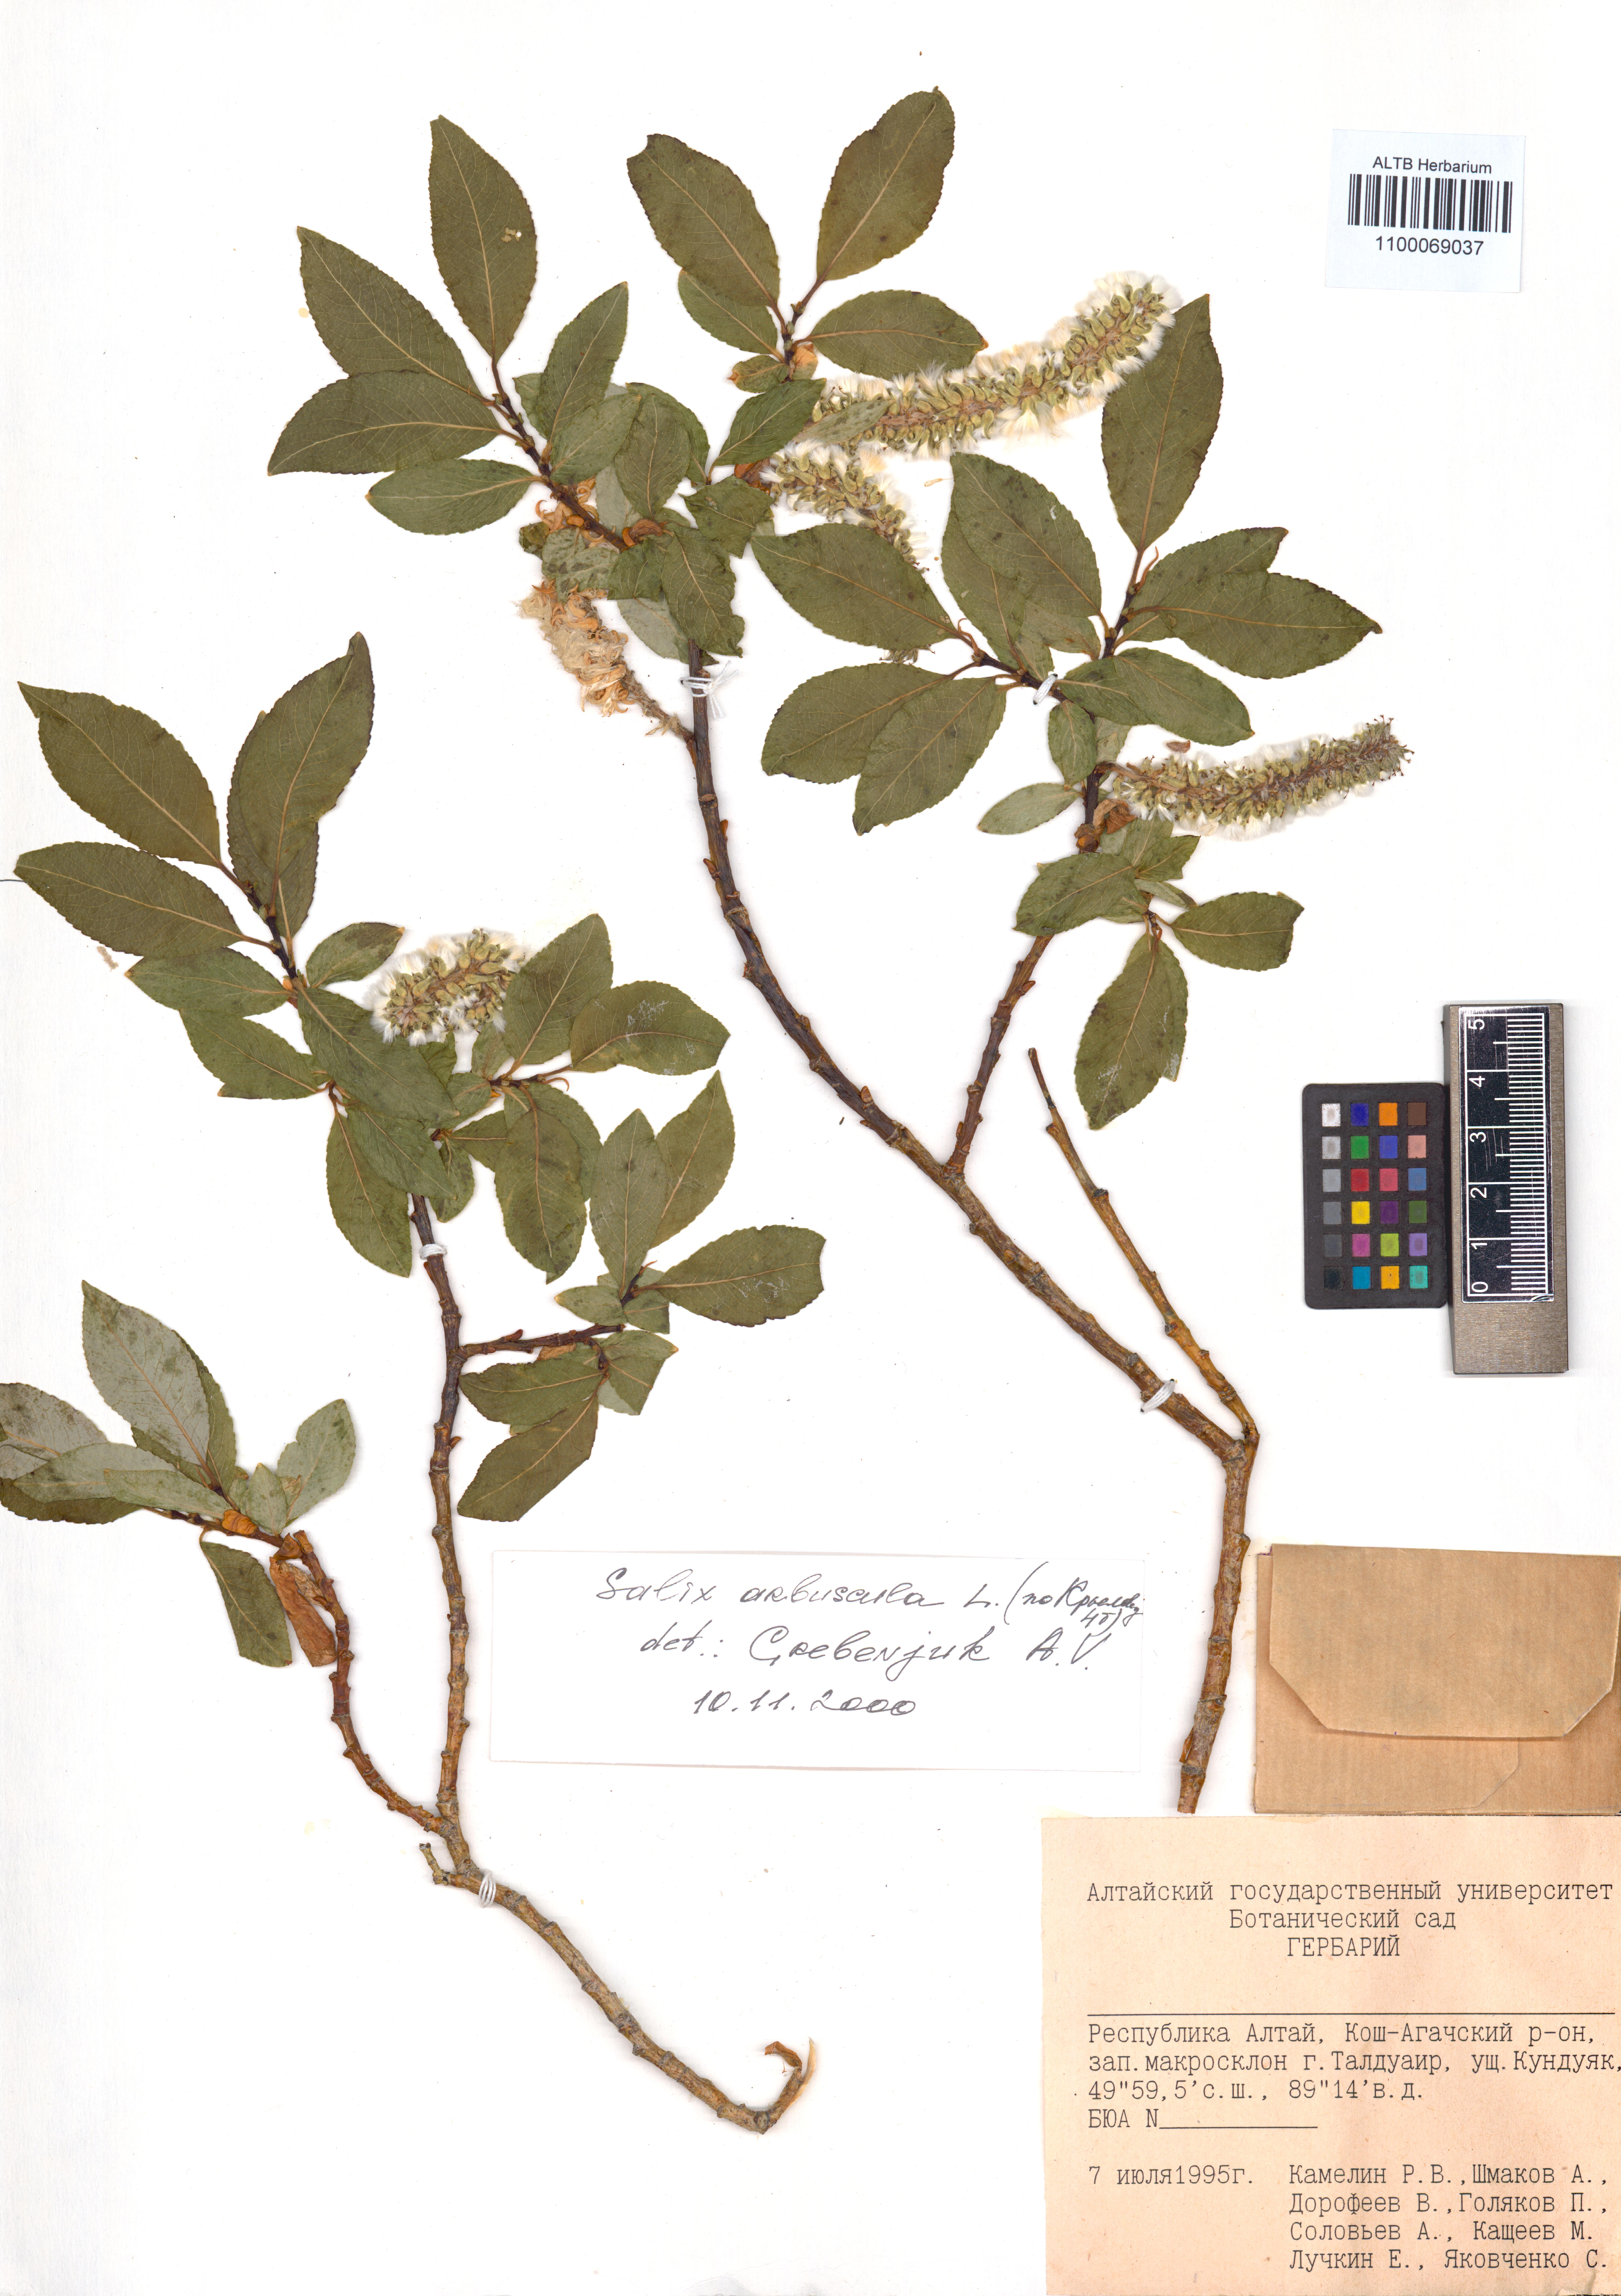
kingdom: Plantae
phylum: Tracheophyta
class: Magnoliopsida
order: Malpighiales
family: Salicaceae
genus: Salix
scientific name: Salix arbuscula
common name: Mountain willow
